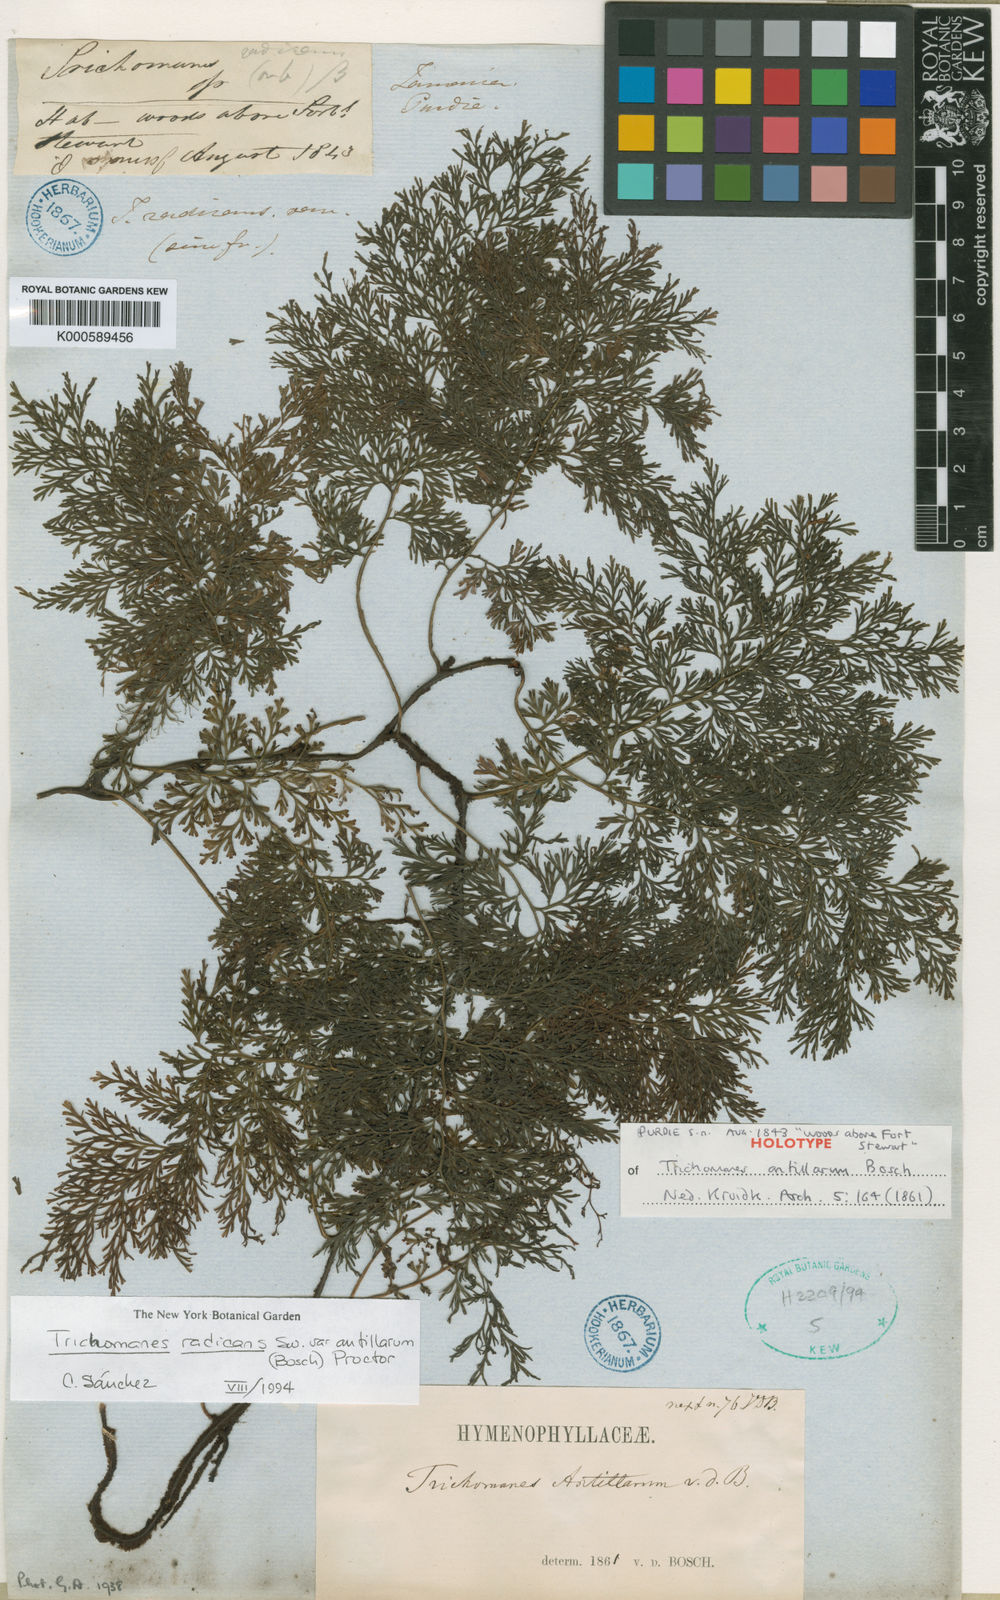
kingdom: Plantae
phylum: Tracheophyta
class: Polypodiopsida
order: Hymenophyllales
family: Hymenophyllaceae
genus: Vandenboschia
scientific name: Vandenboschia radicans
